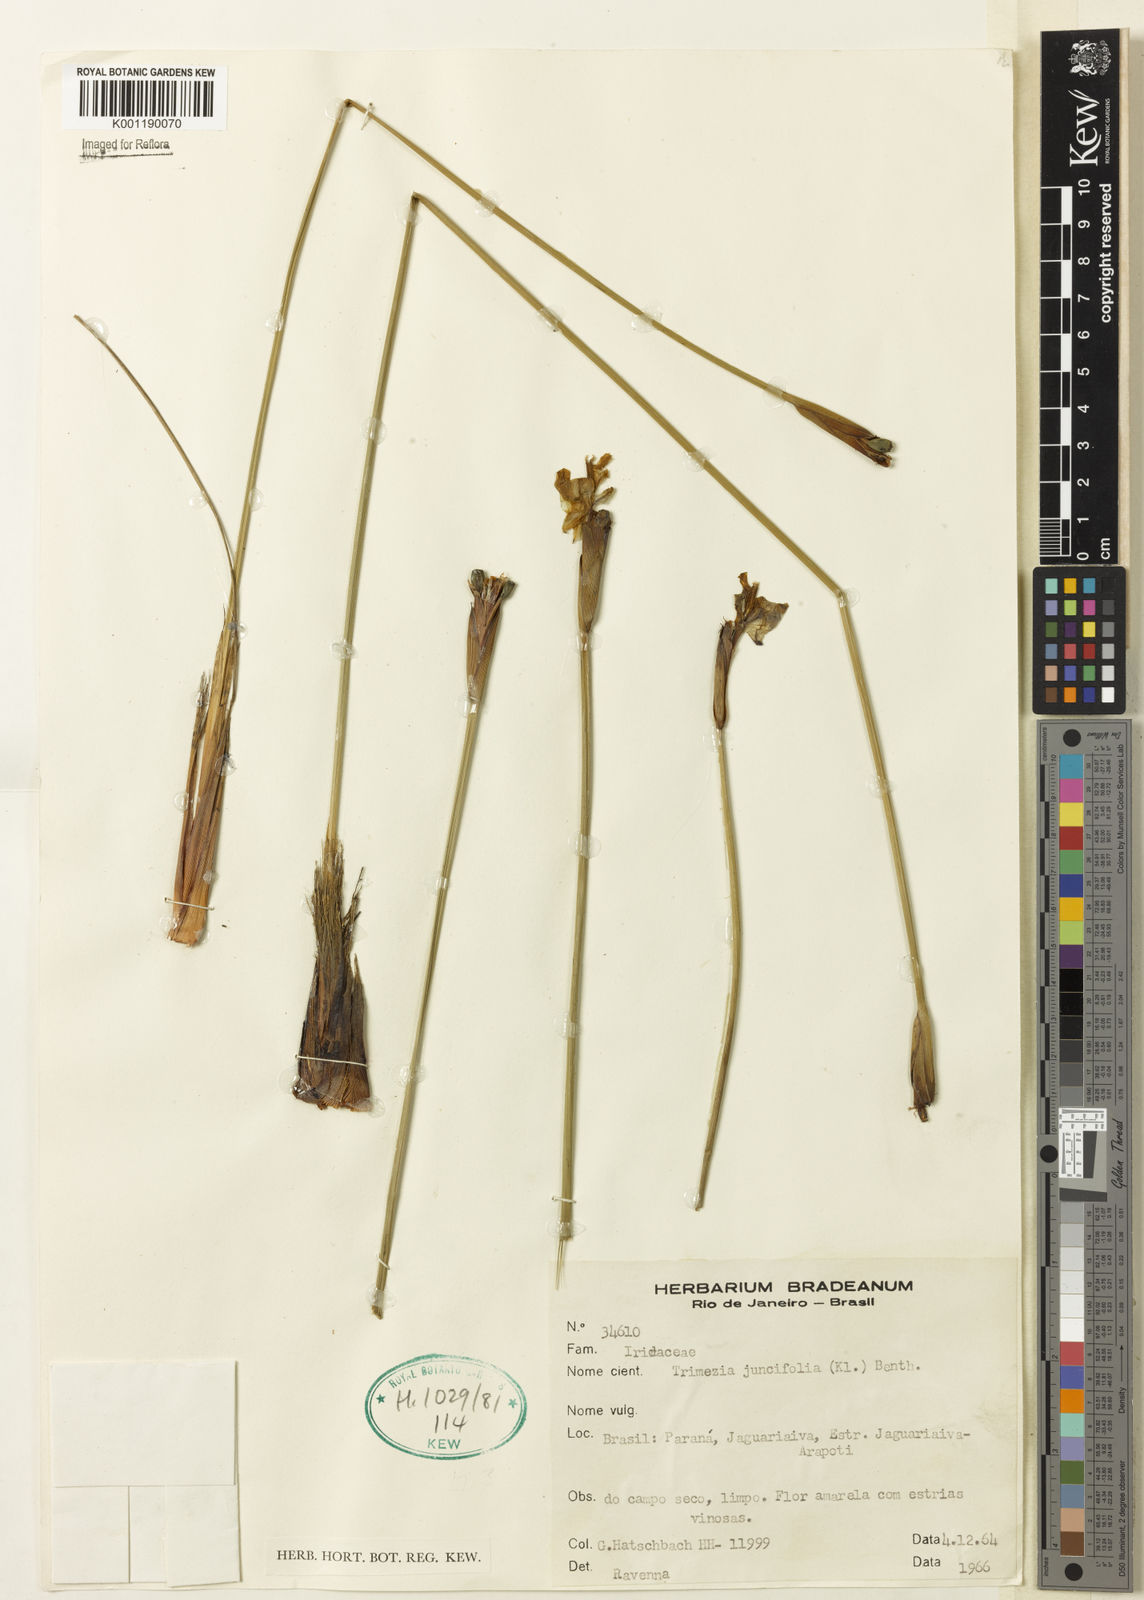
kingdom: Plantae
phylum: Tracheophyta
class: Liliopsida
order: Asparagales
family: Iridaceae
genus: Trimezia
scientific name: Trimezia juncifolia
